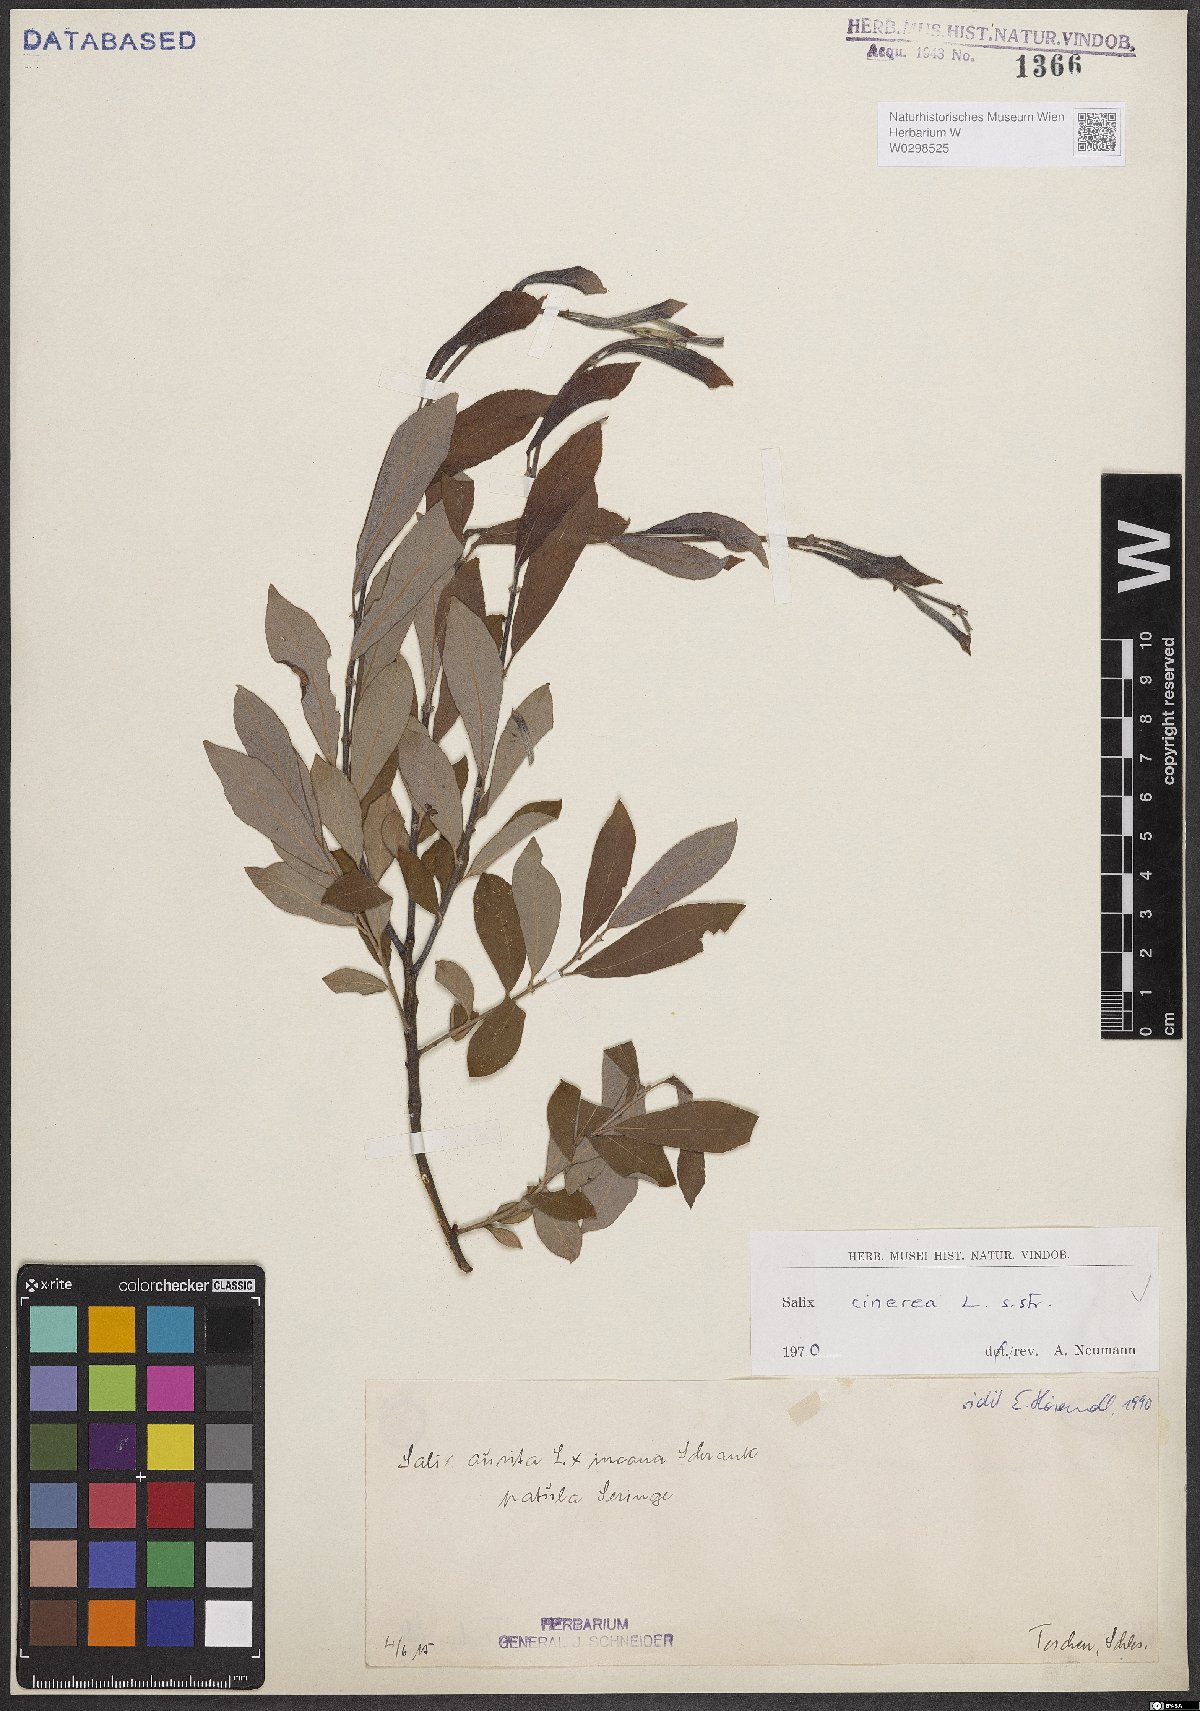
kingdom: Plantae
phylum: Tracheophyta
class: Magnoliopsida
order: Malpighiales
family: Salicaceae
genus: Salix
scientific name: Salix cinerea
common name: Common sallow
